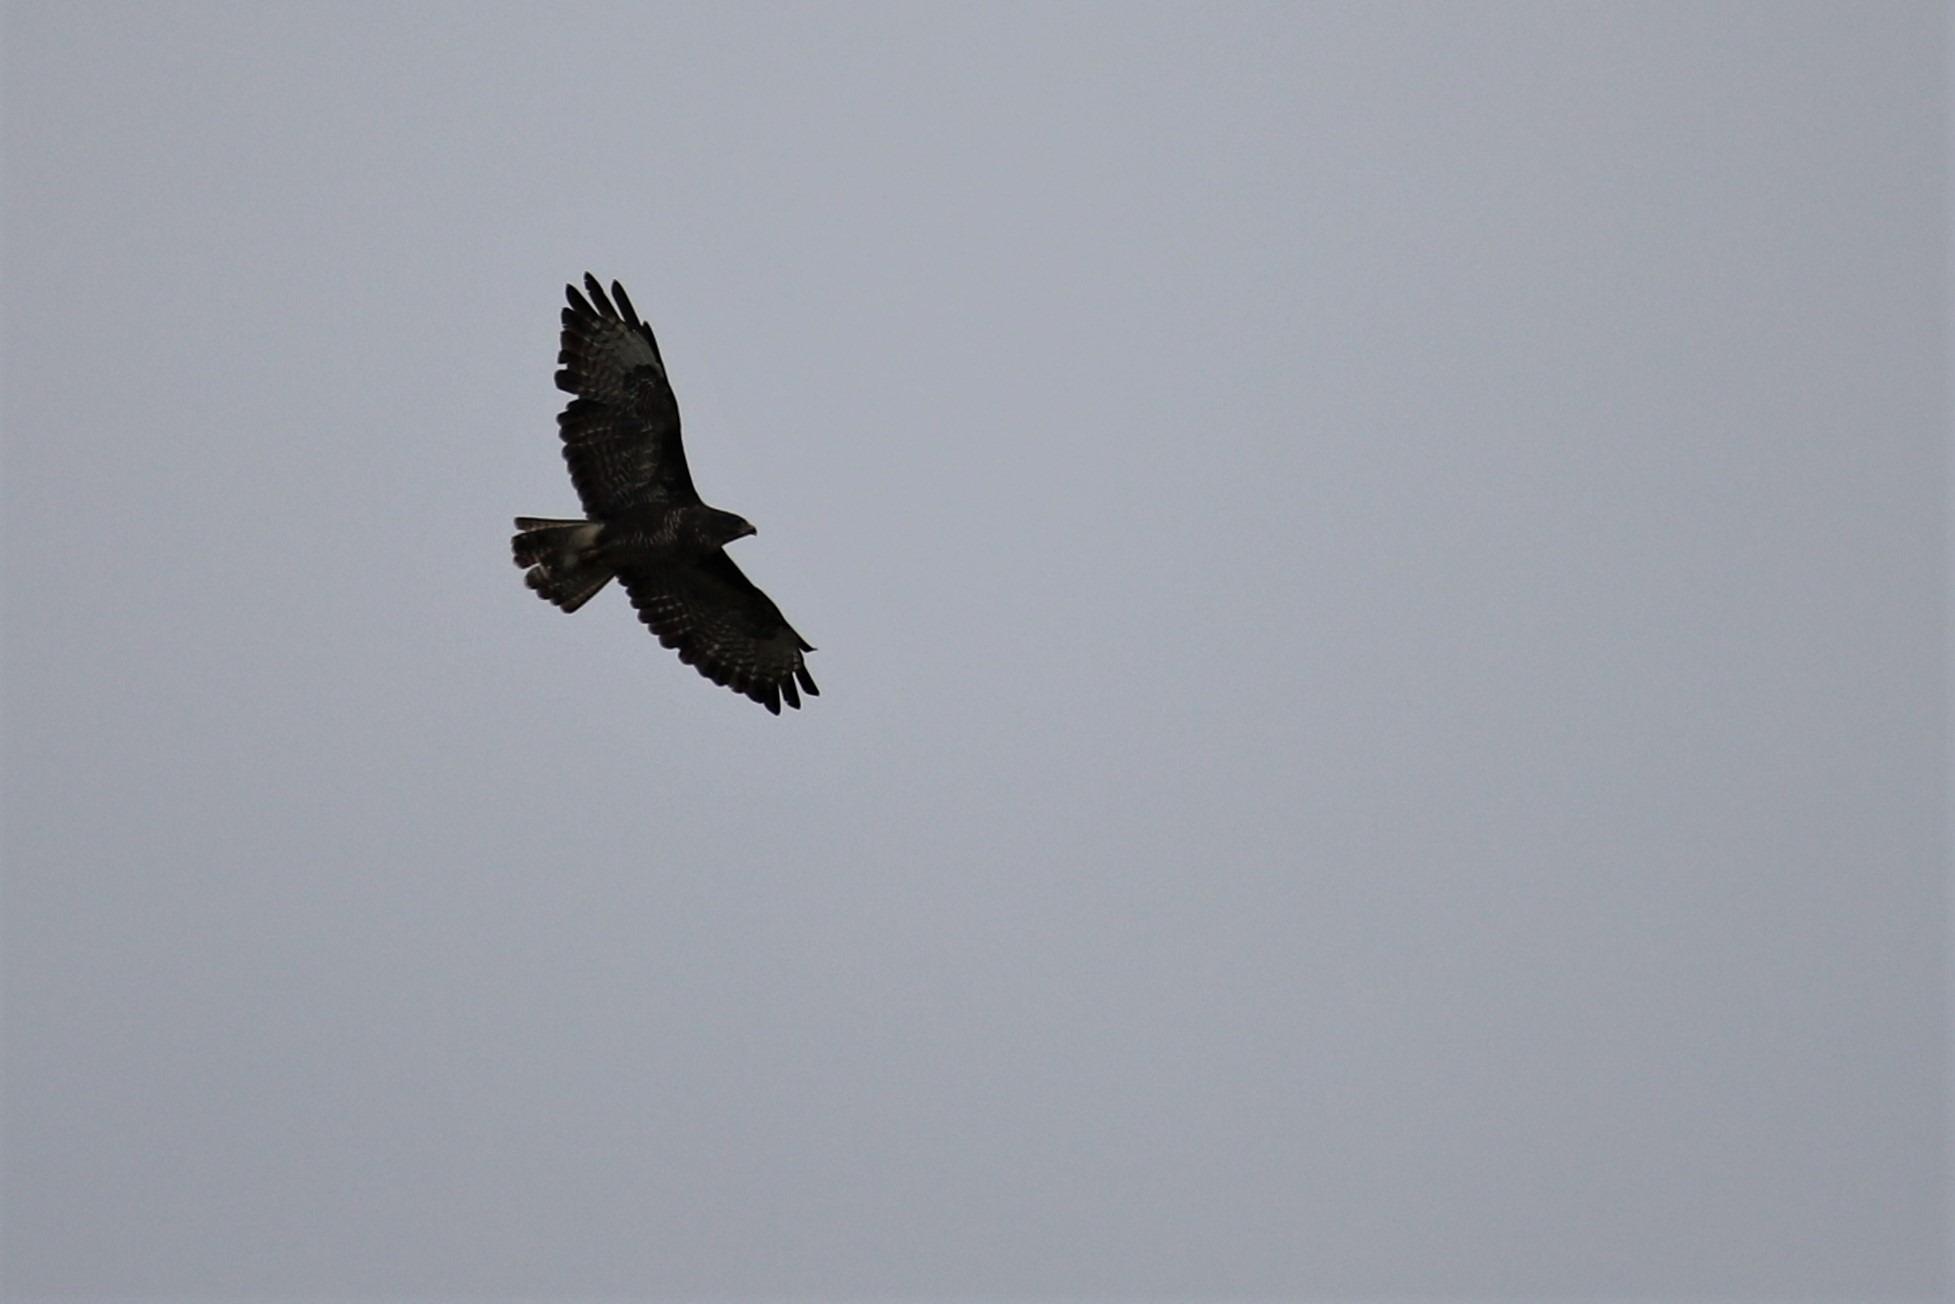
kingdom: Animalia
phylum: Chordata
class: Aves
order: Accipitriformes
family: Accipitridae
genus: Buteo
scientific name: Buteo buteo
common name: Musvåge
